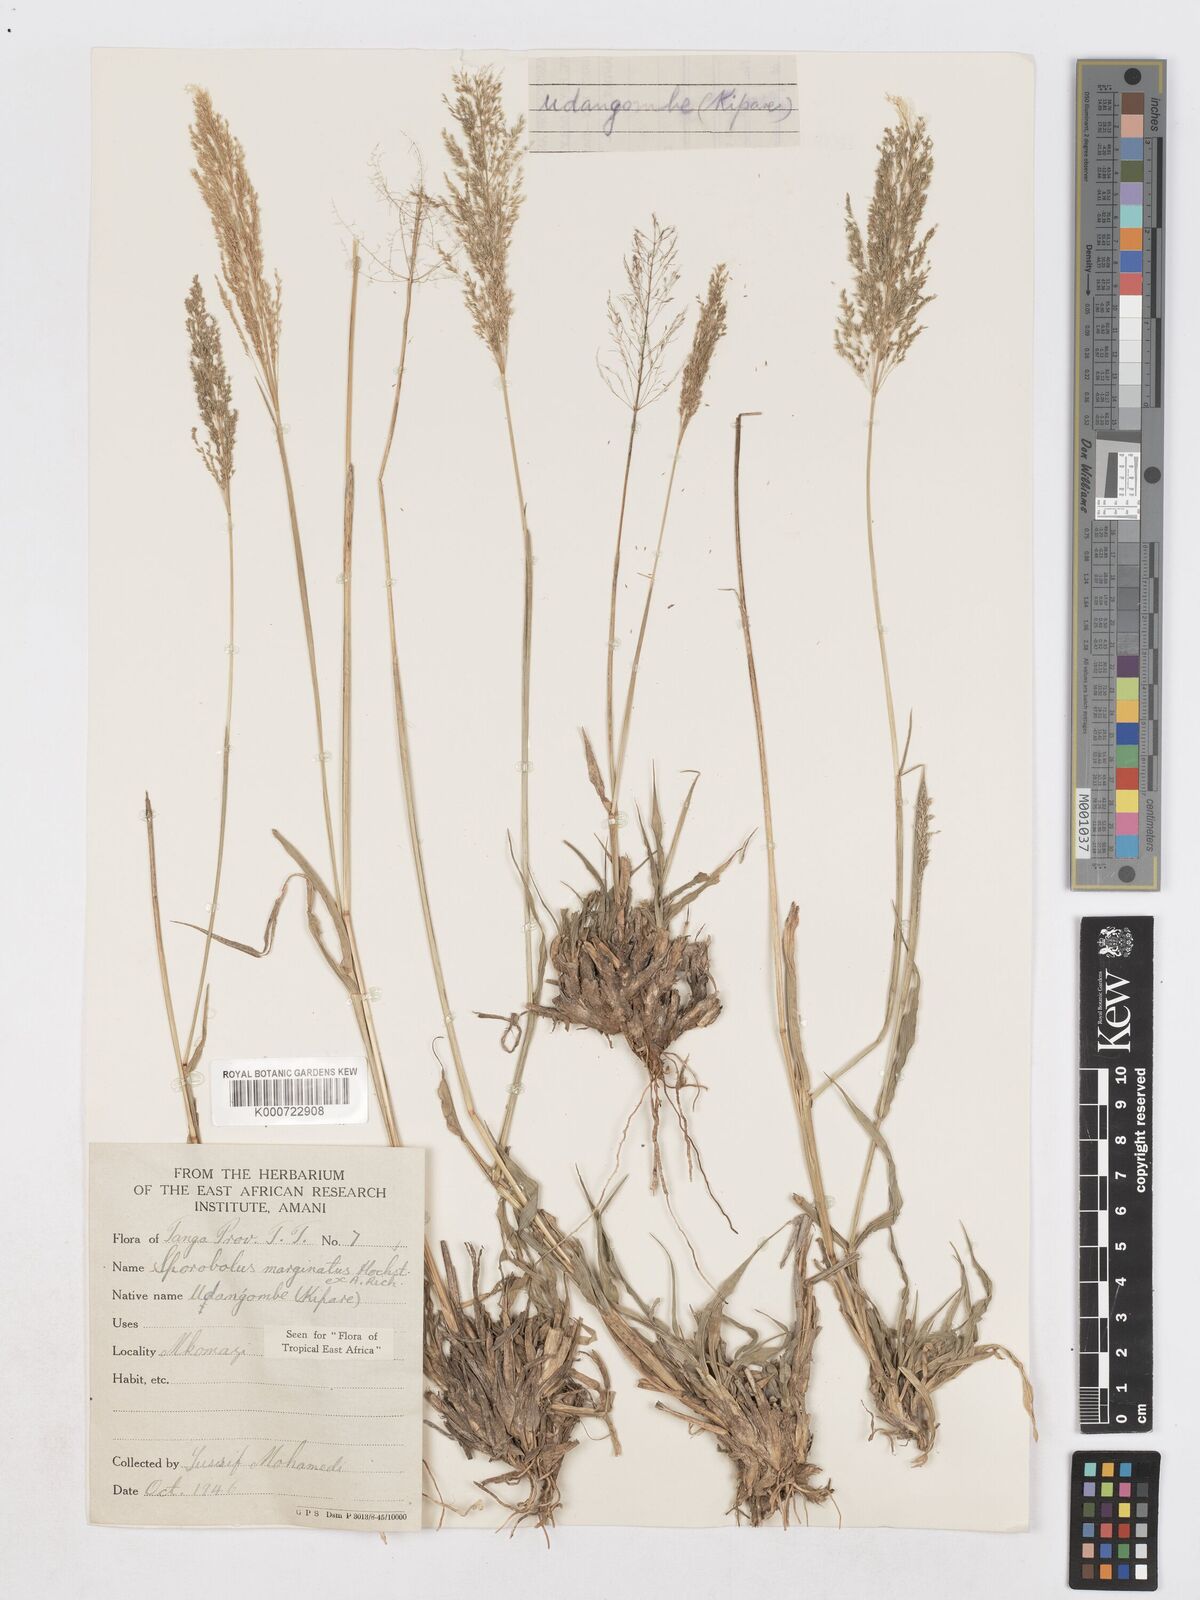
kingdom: Plantae
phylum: Tracheophyta
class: Liliopsida
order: Poales
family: Poaceae
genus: Sporobolus
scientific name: Sporobolus ioclados
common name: Pan dropseed
